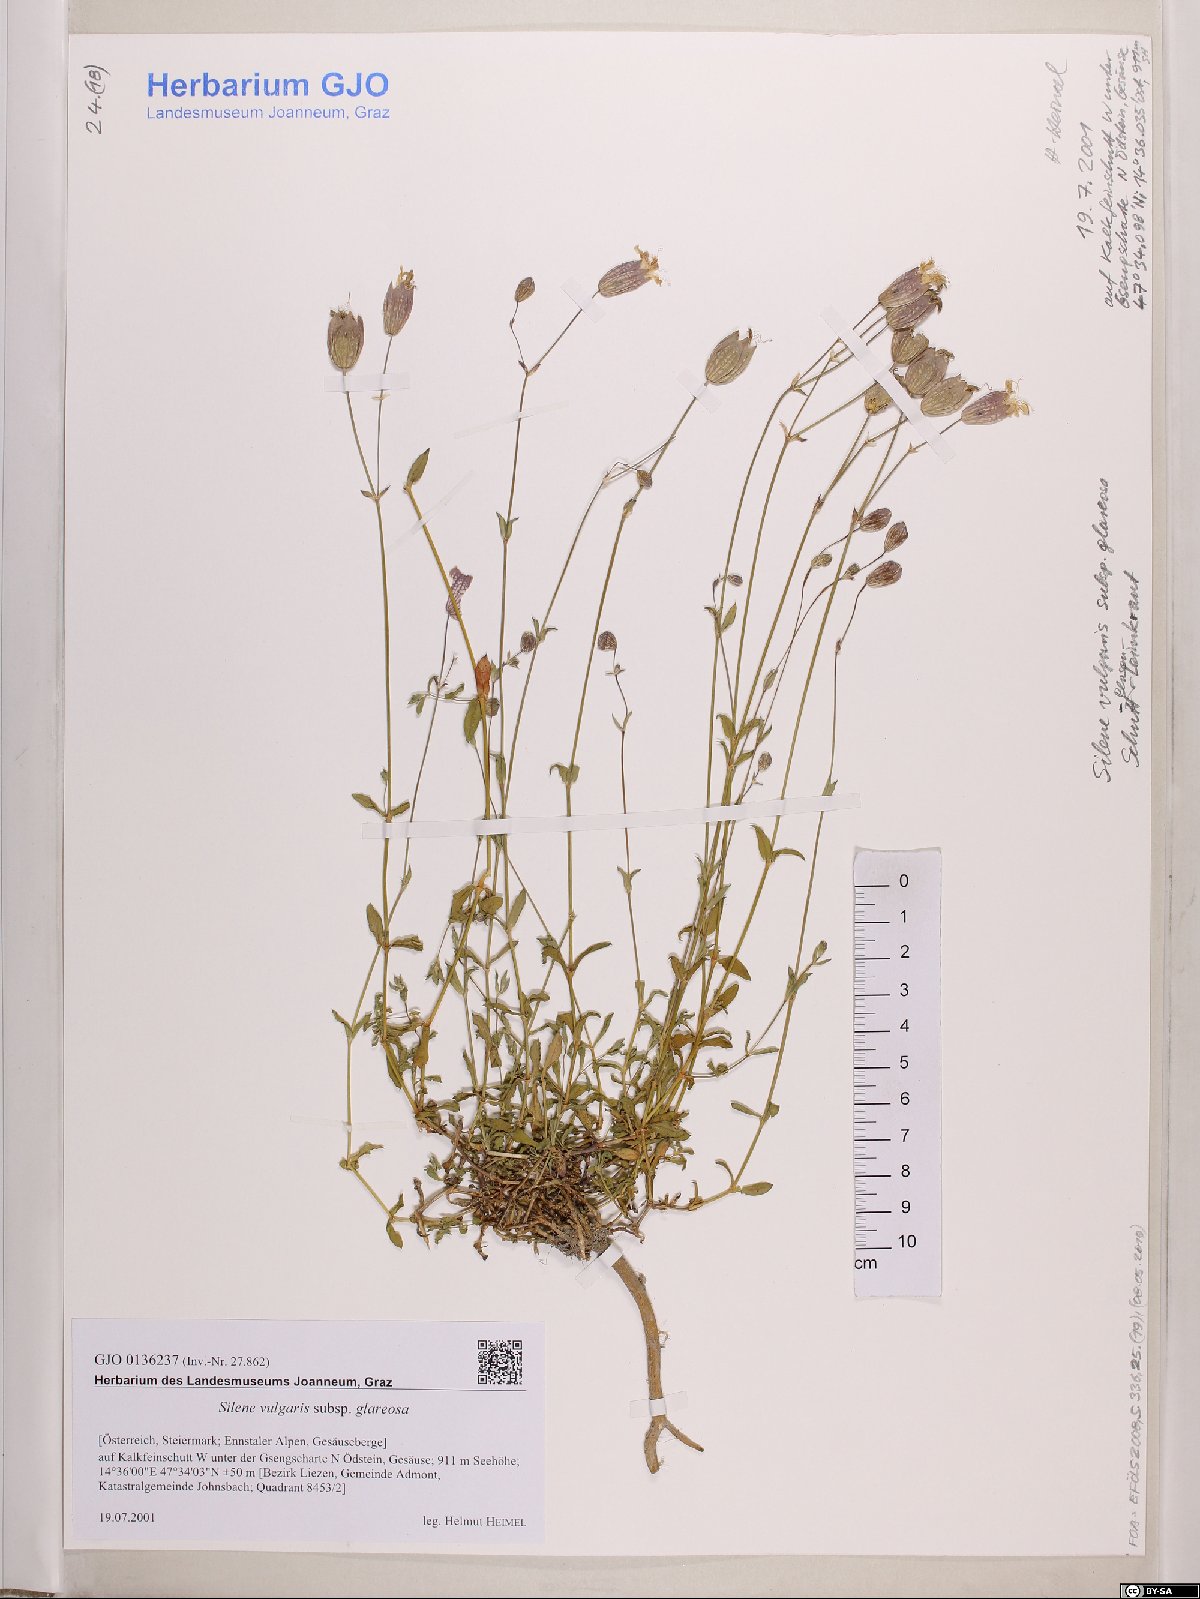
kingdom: Plantae
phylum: Tracheophyta
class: Magnoliopsida
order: Caryophyllales
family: Caryophyllaceae
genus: Silene
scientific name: Silene glareosa
